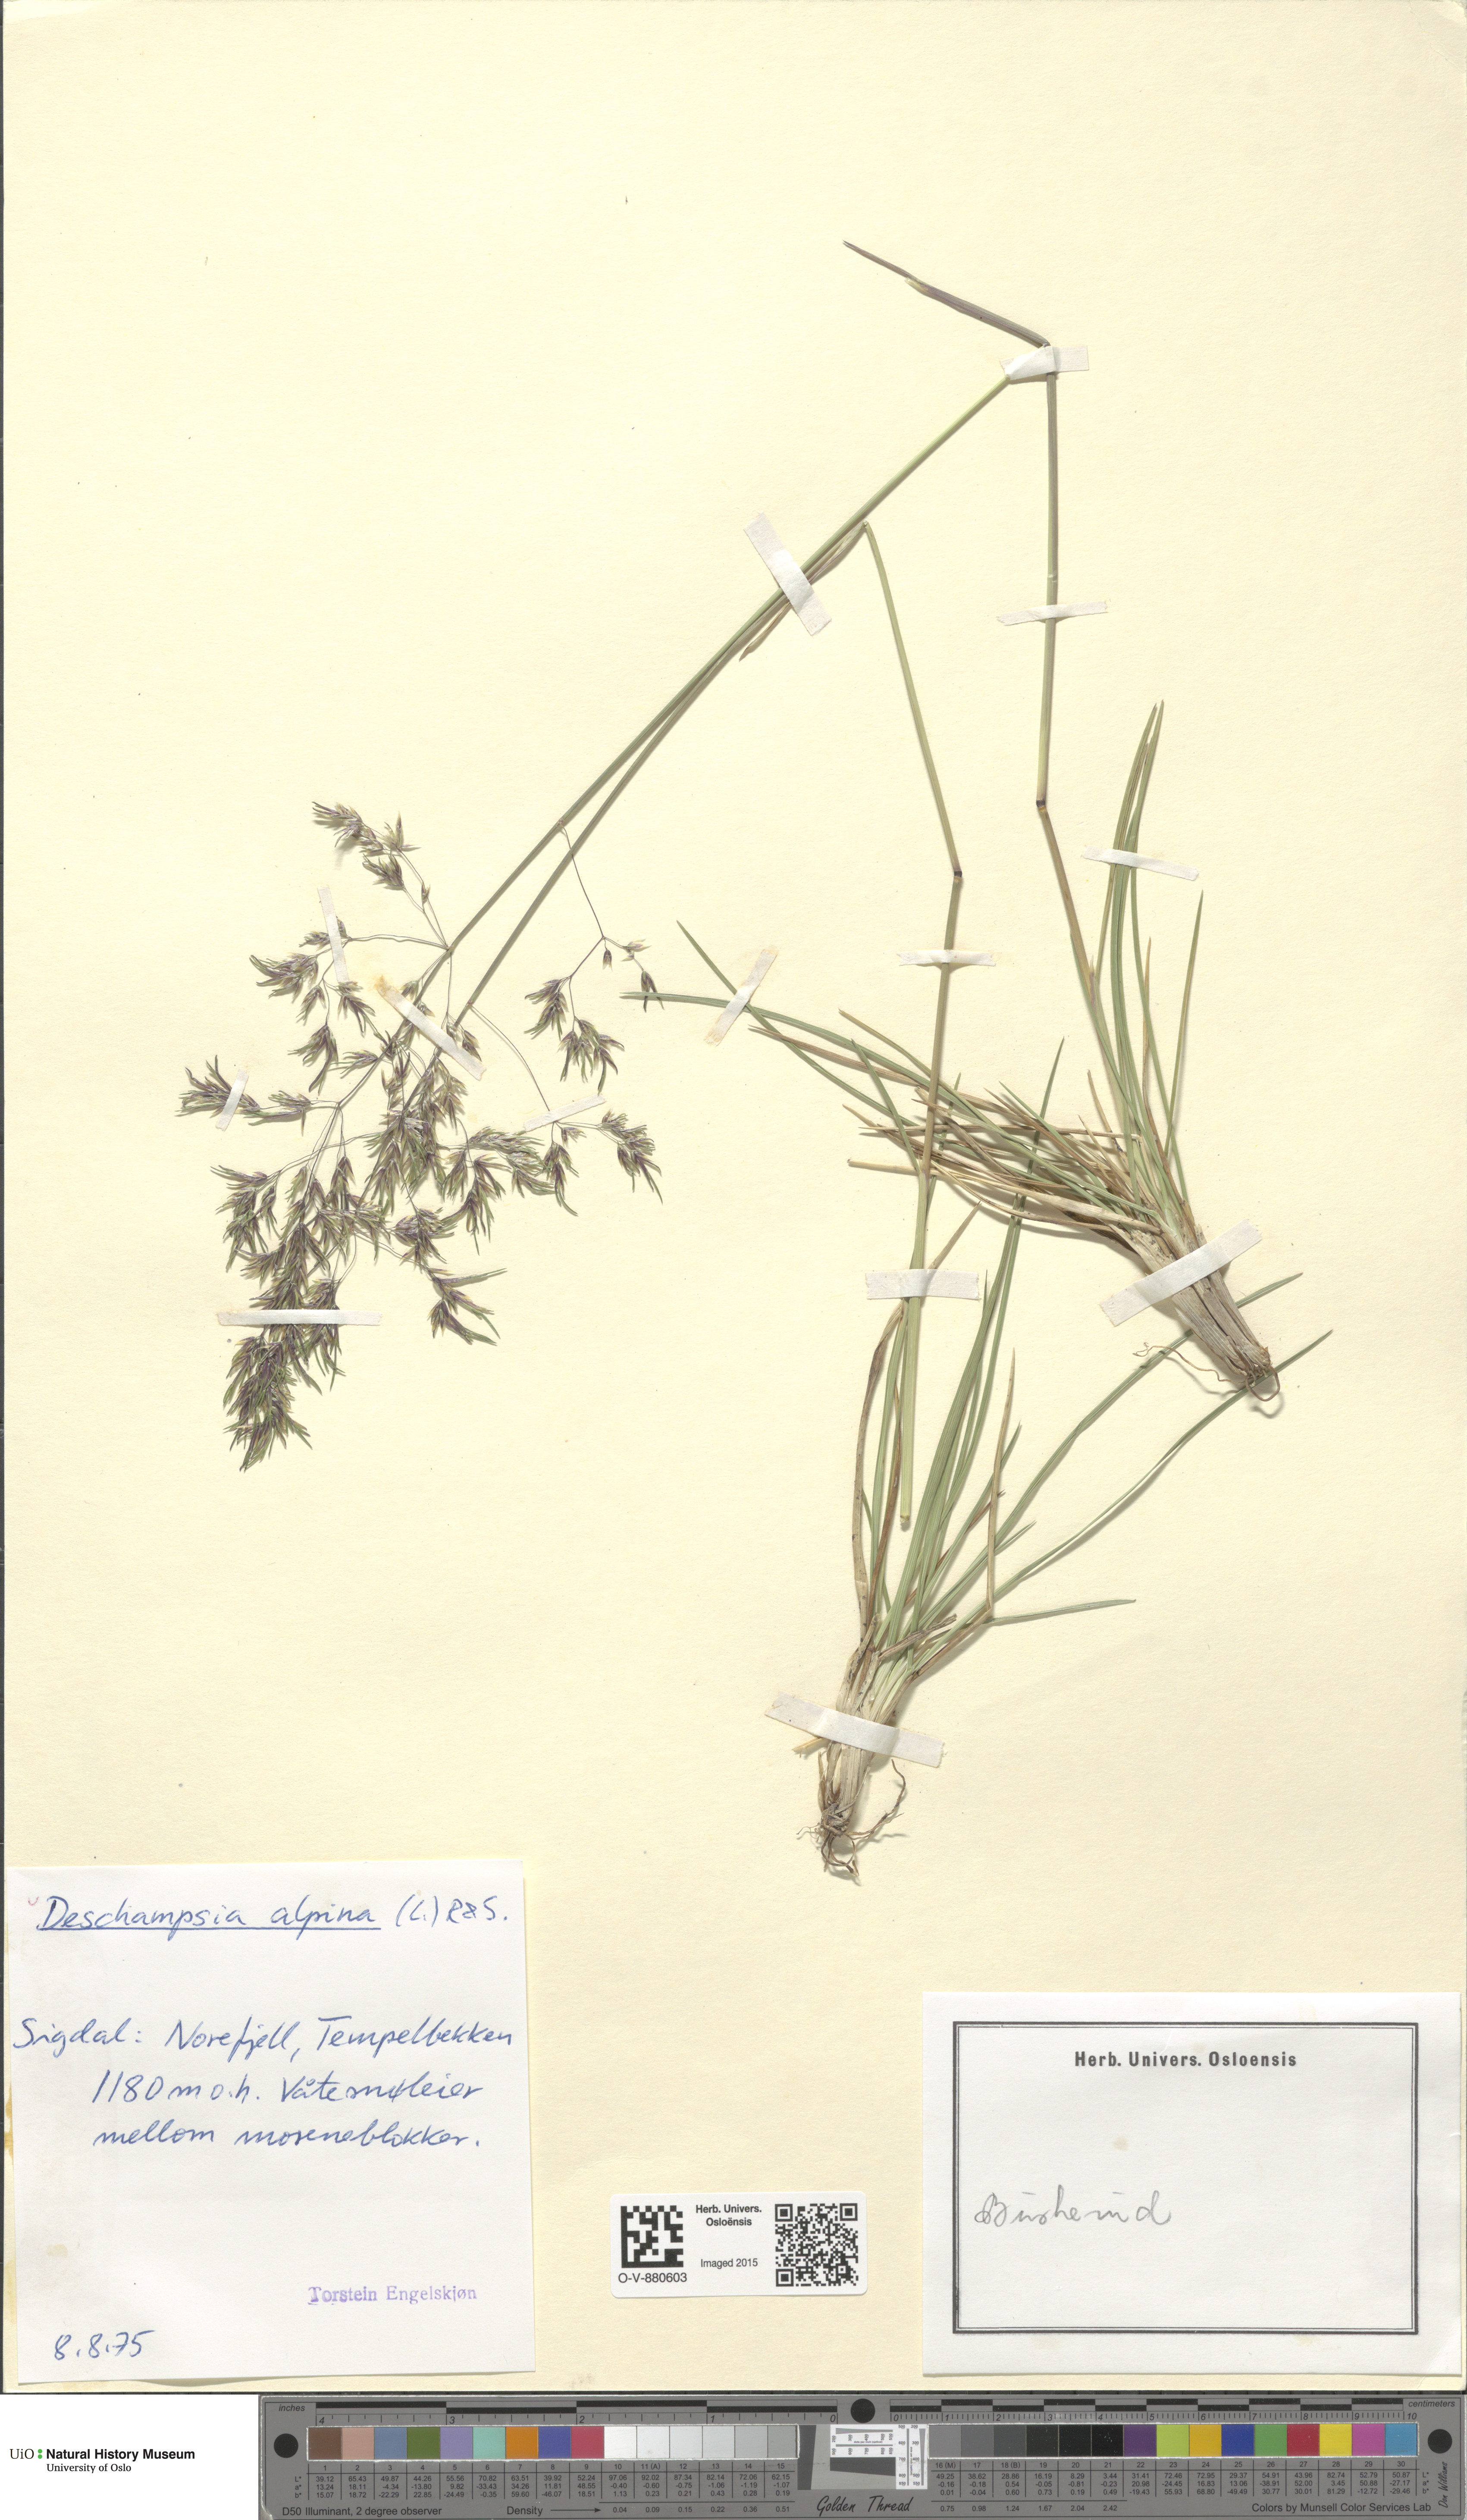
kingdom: Plantae
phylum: Tracheophyta
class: Liliopsida
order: Poales
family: Poaceae
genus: Deschampsia
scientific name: Deschampsia cespitosa
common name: Tufted hair-grass
